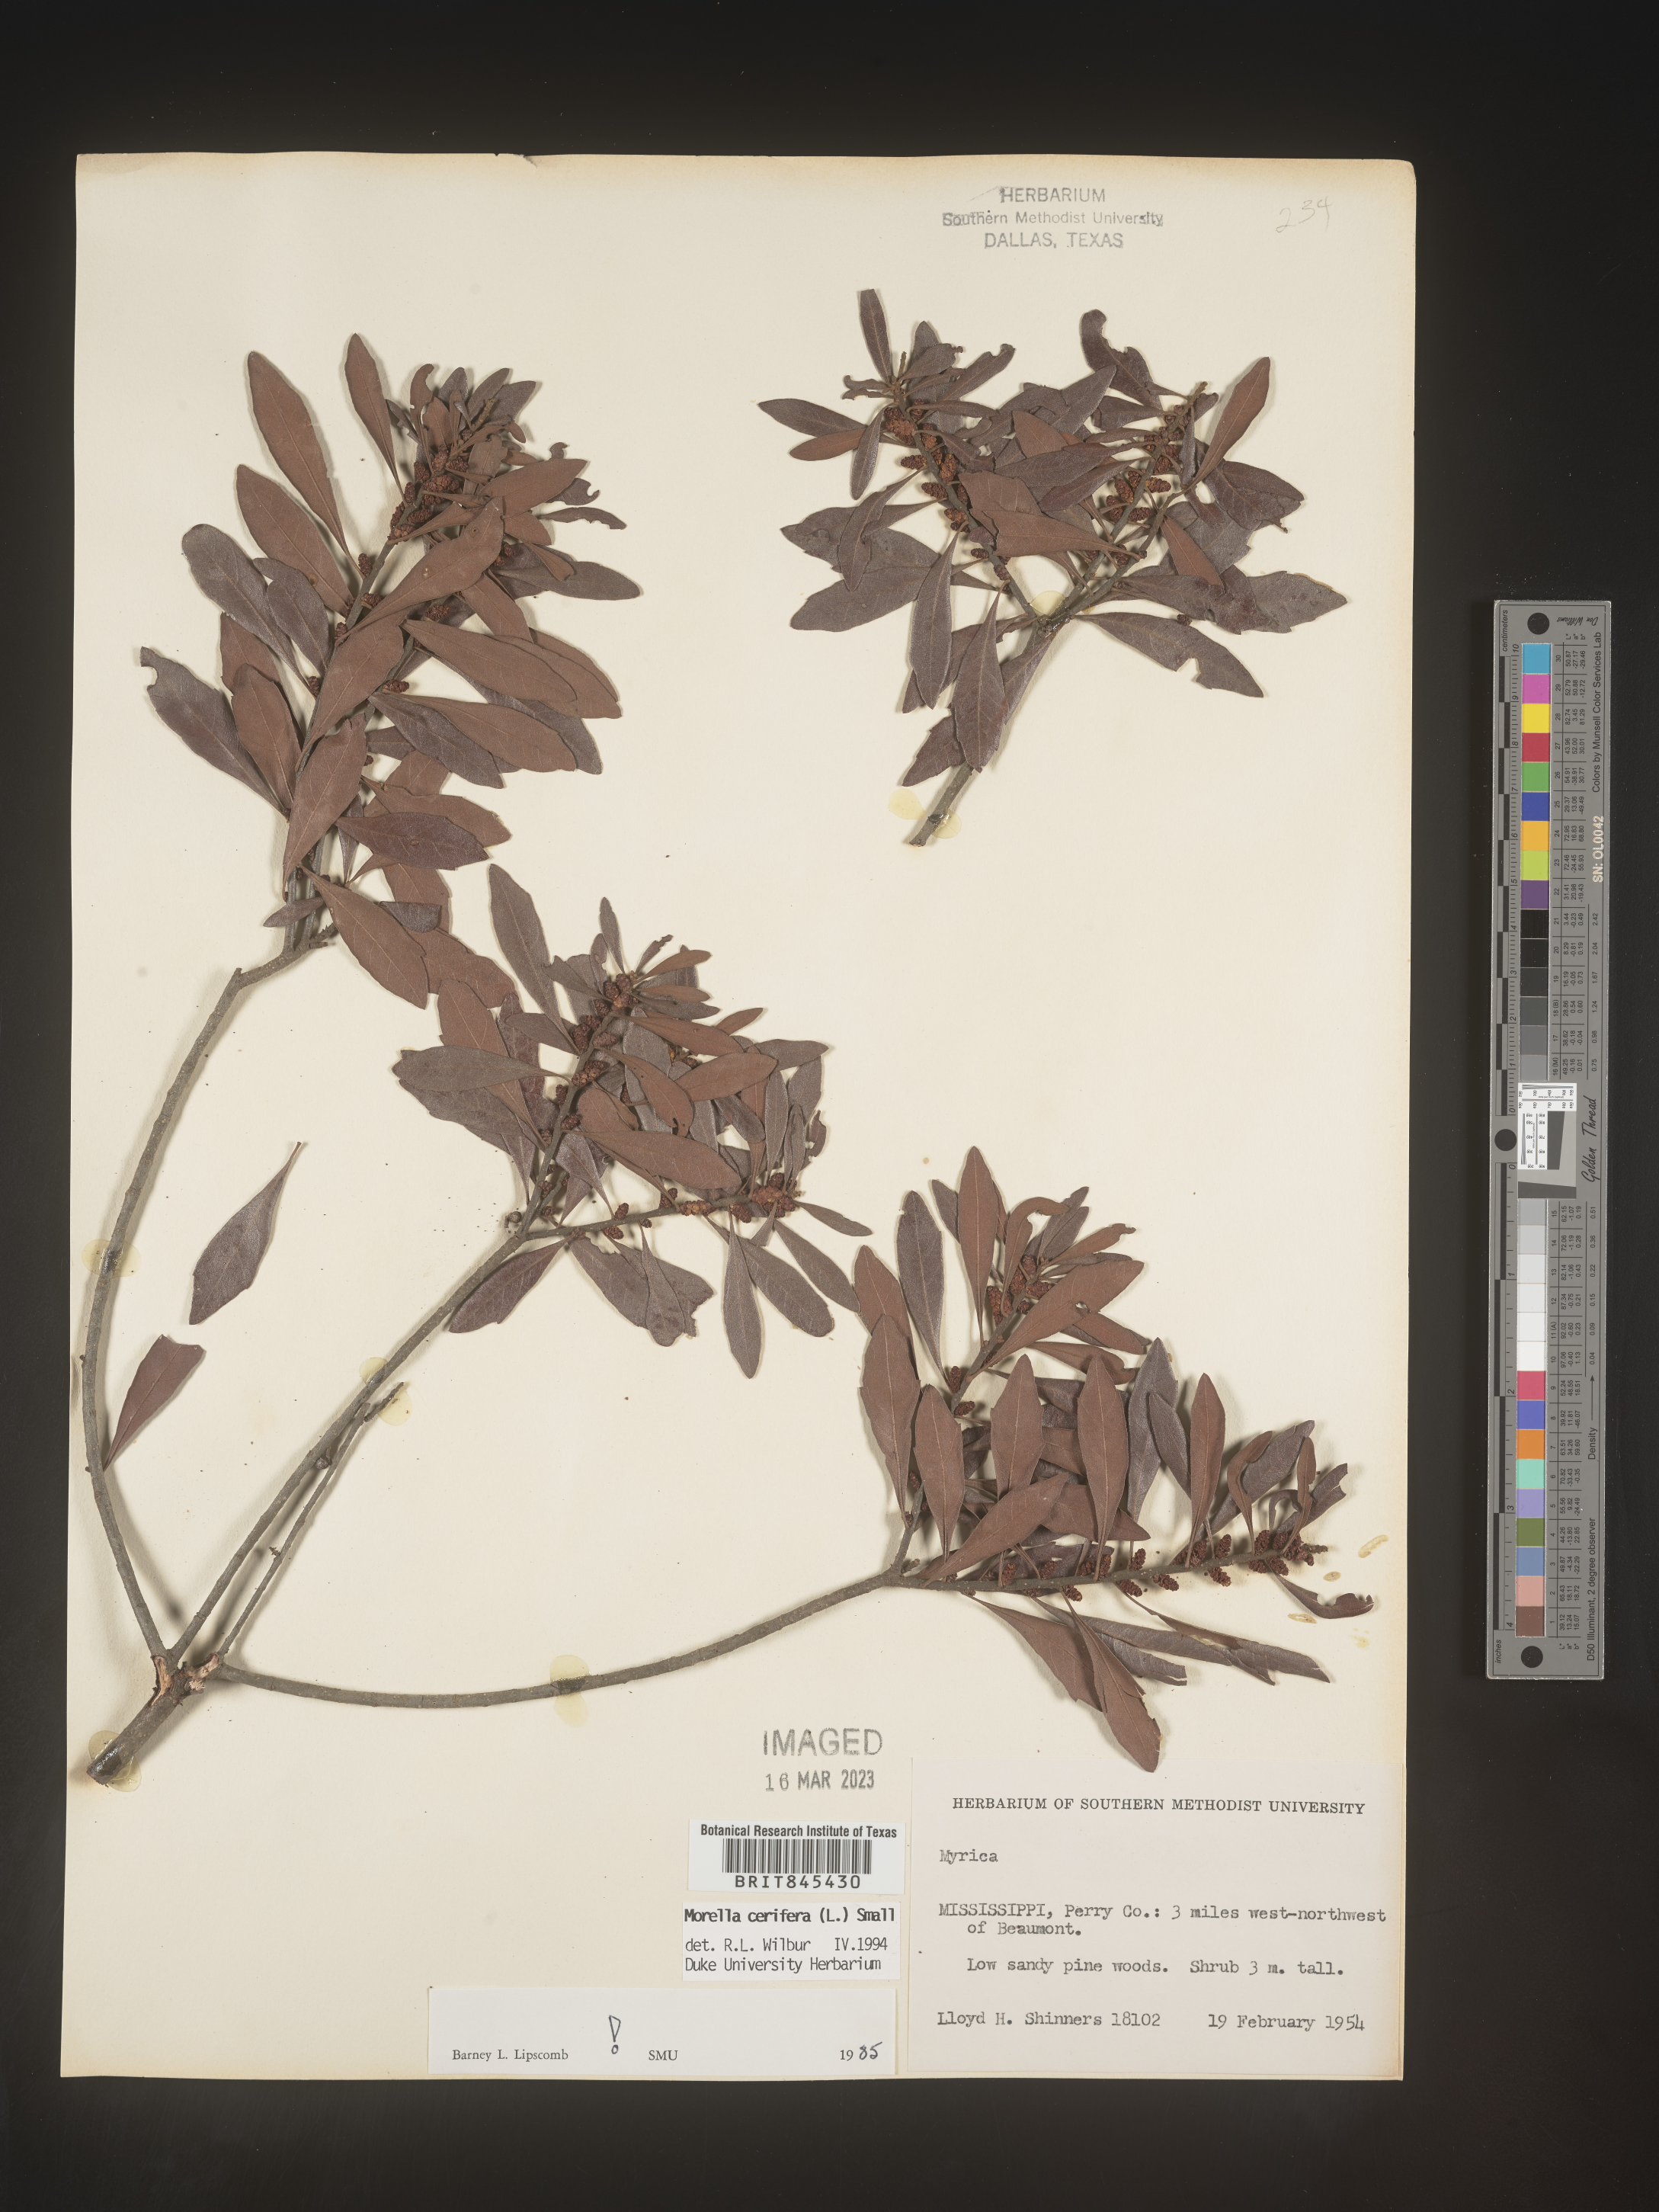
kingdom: Plantae
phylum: Tracheophyta
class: Magnoliopsida
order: Fagales
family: Myricaceae
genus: Morella
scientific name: Morella cerifera
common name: Wax myrtle
